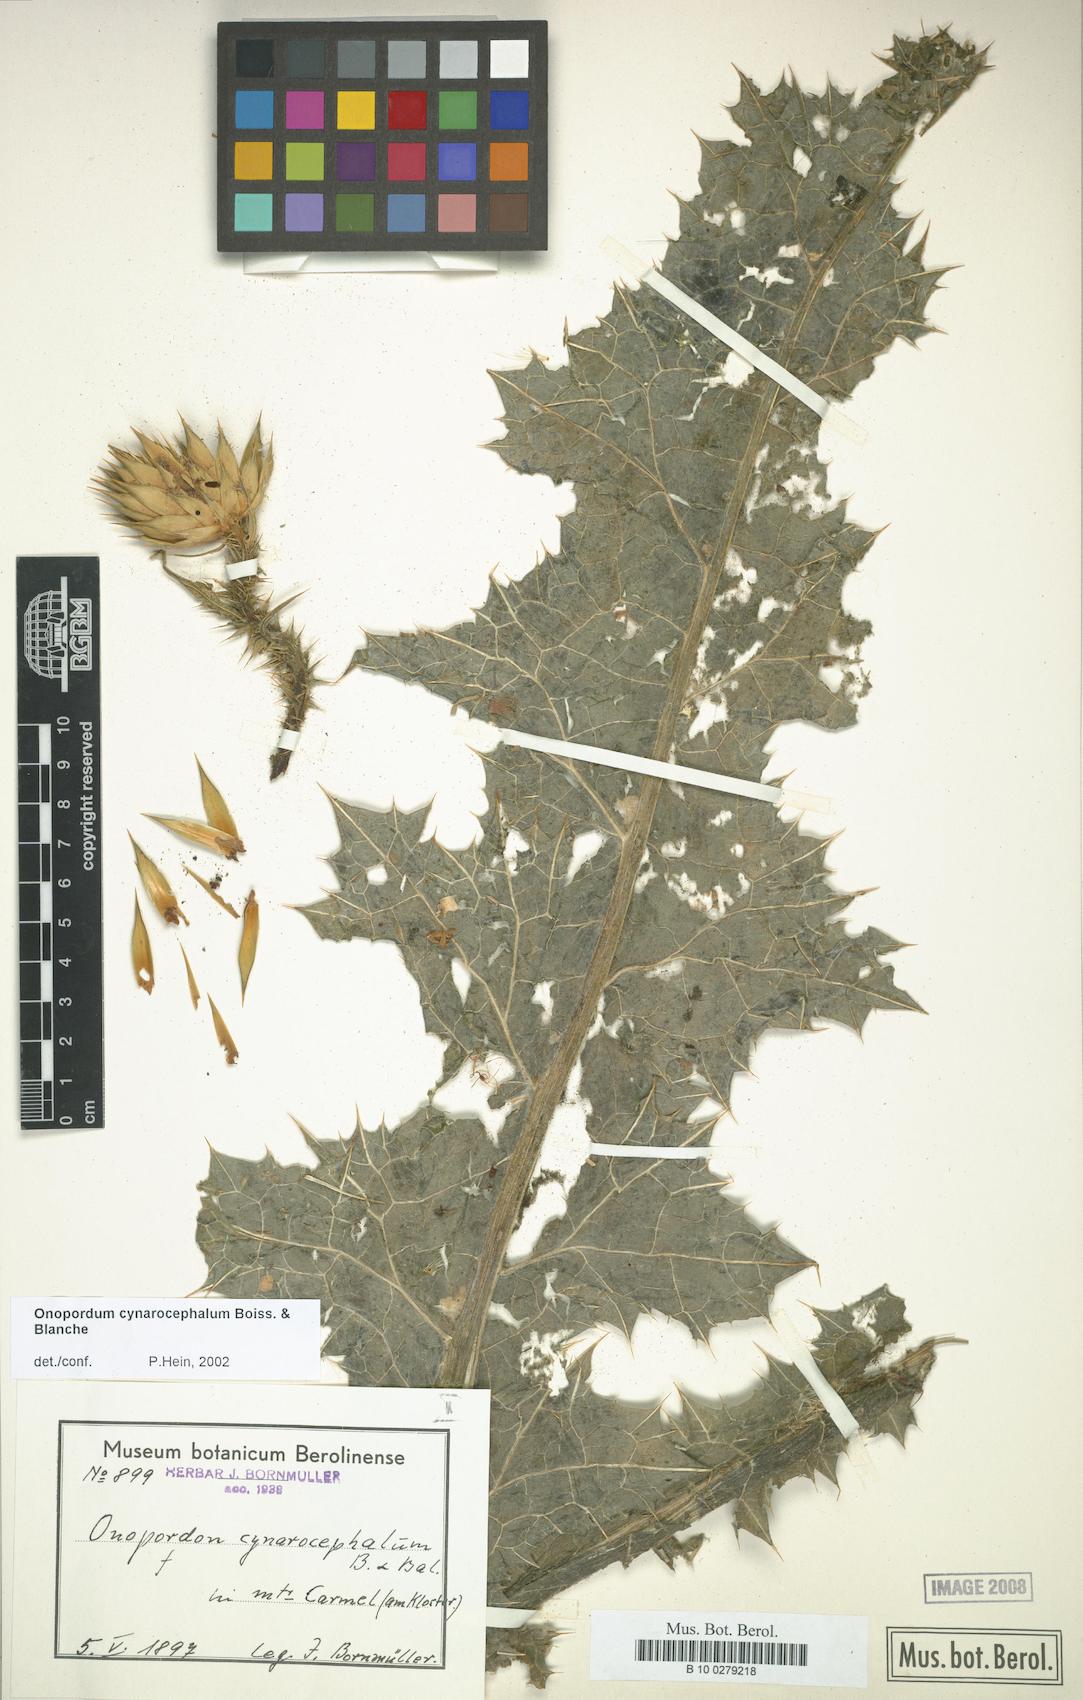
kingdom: Plantae
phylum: Tracheophyta
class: Magnoliopsida
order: Asterales
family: Asteraceae
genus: Onopordum
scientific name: Onopordum cynarocephalum
